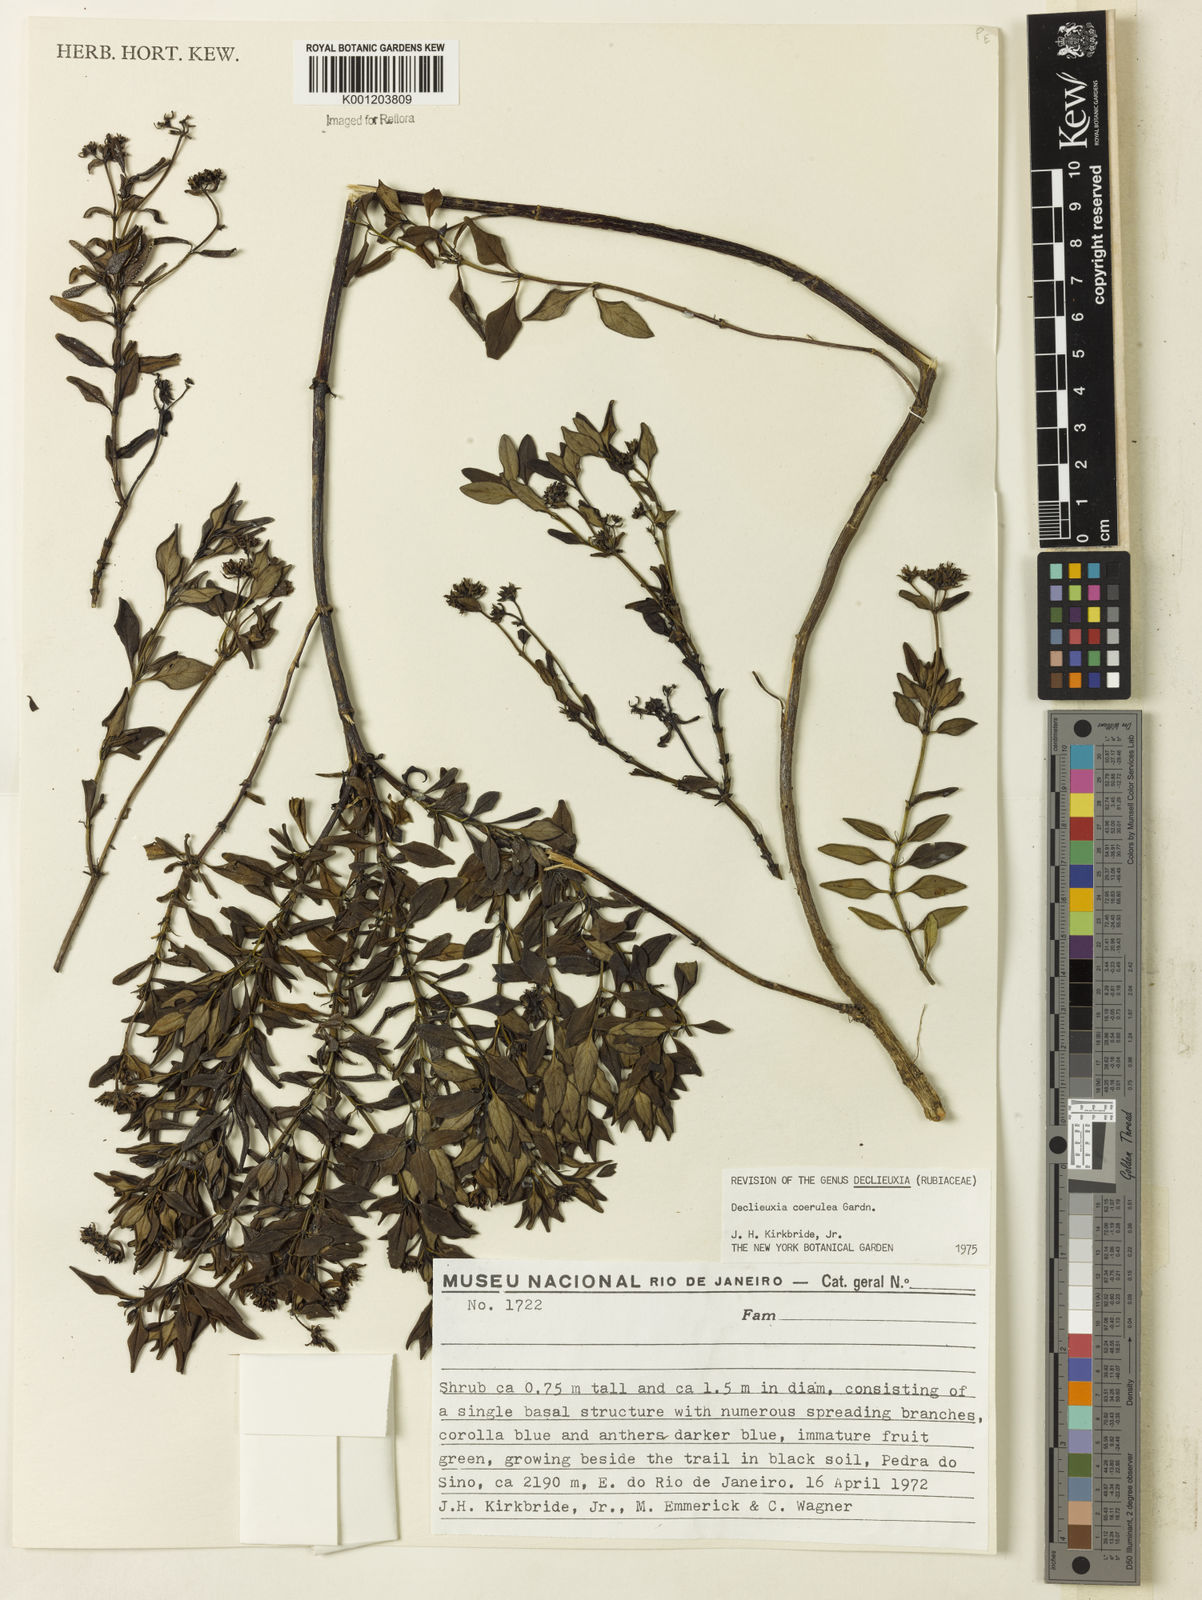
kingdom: Plantae
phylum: Tracheophyta
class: Magnoliopsida
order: Gentianales
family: Rubiaceae
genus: Declieuxia
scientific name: Declieuxia coerulea
